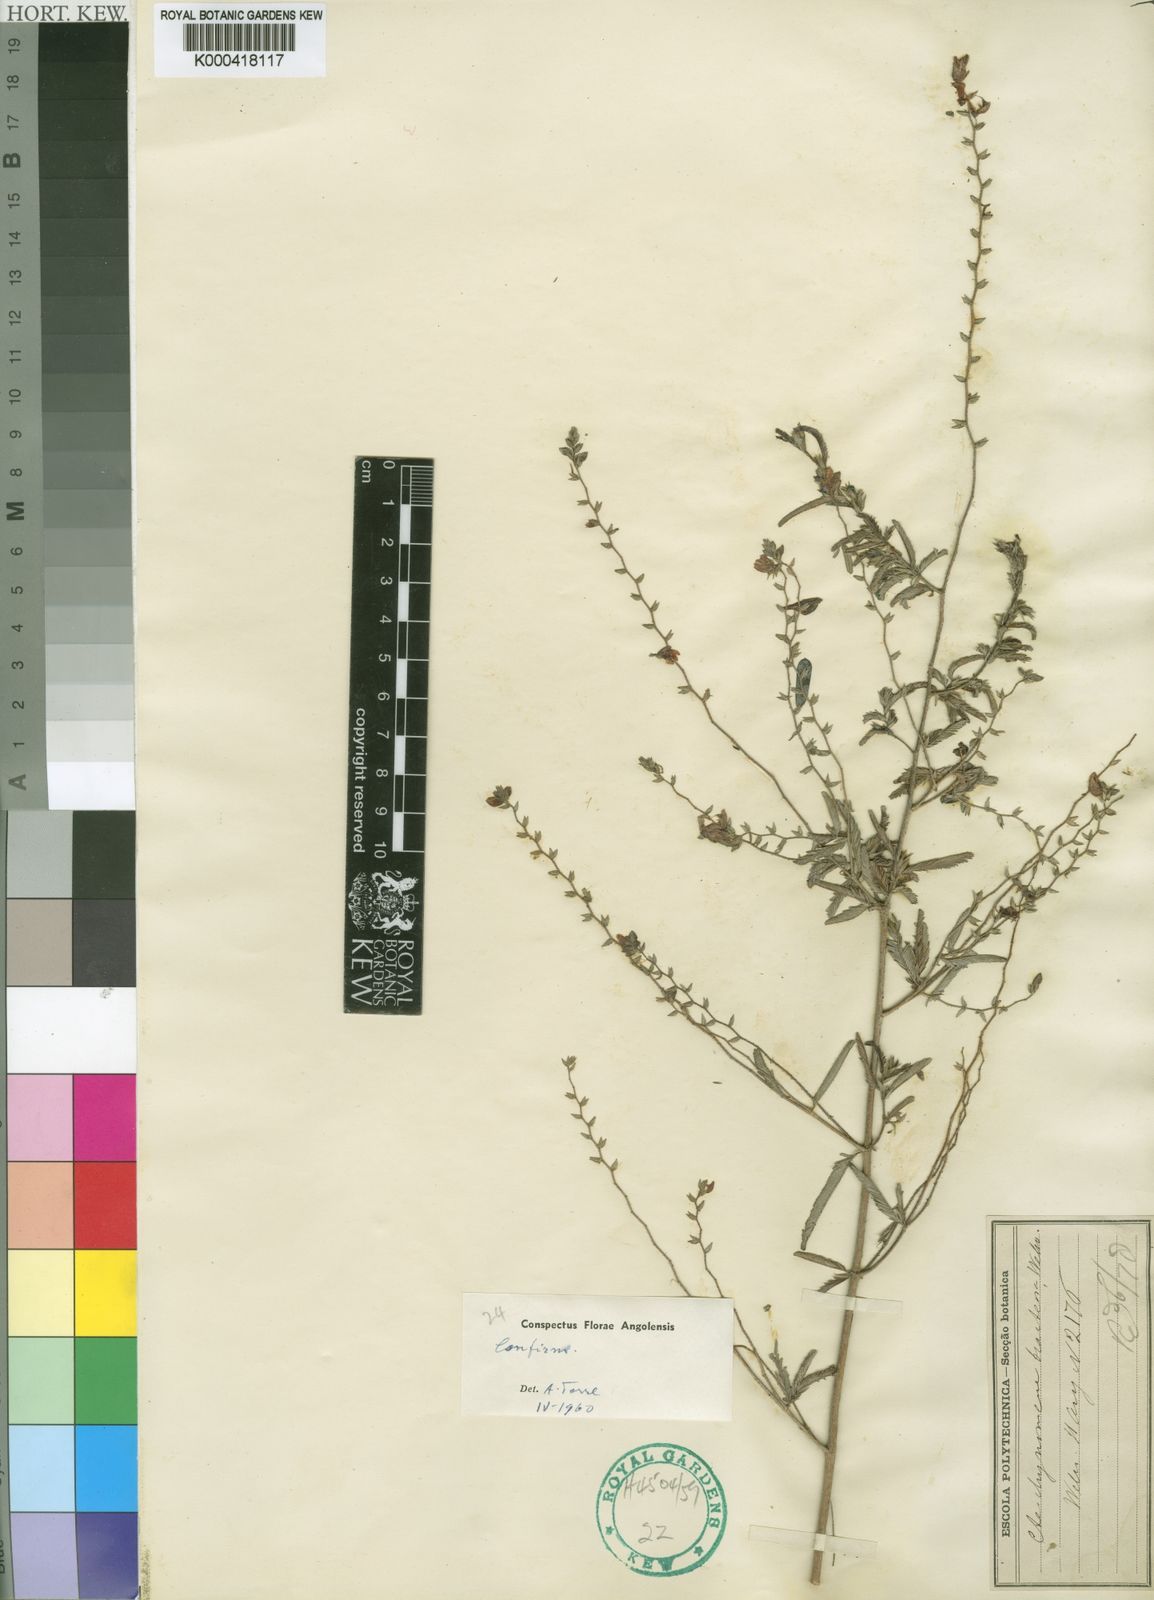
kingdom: Plantae
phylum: Tracheophyta
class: Magnoliopsida
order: Fabales
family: Fabaceae
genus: Aeschynomene
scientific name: Aeschynomene bracteosa
